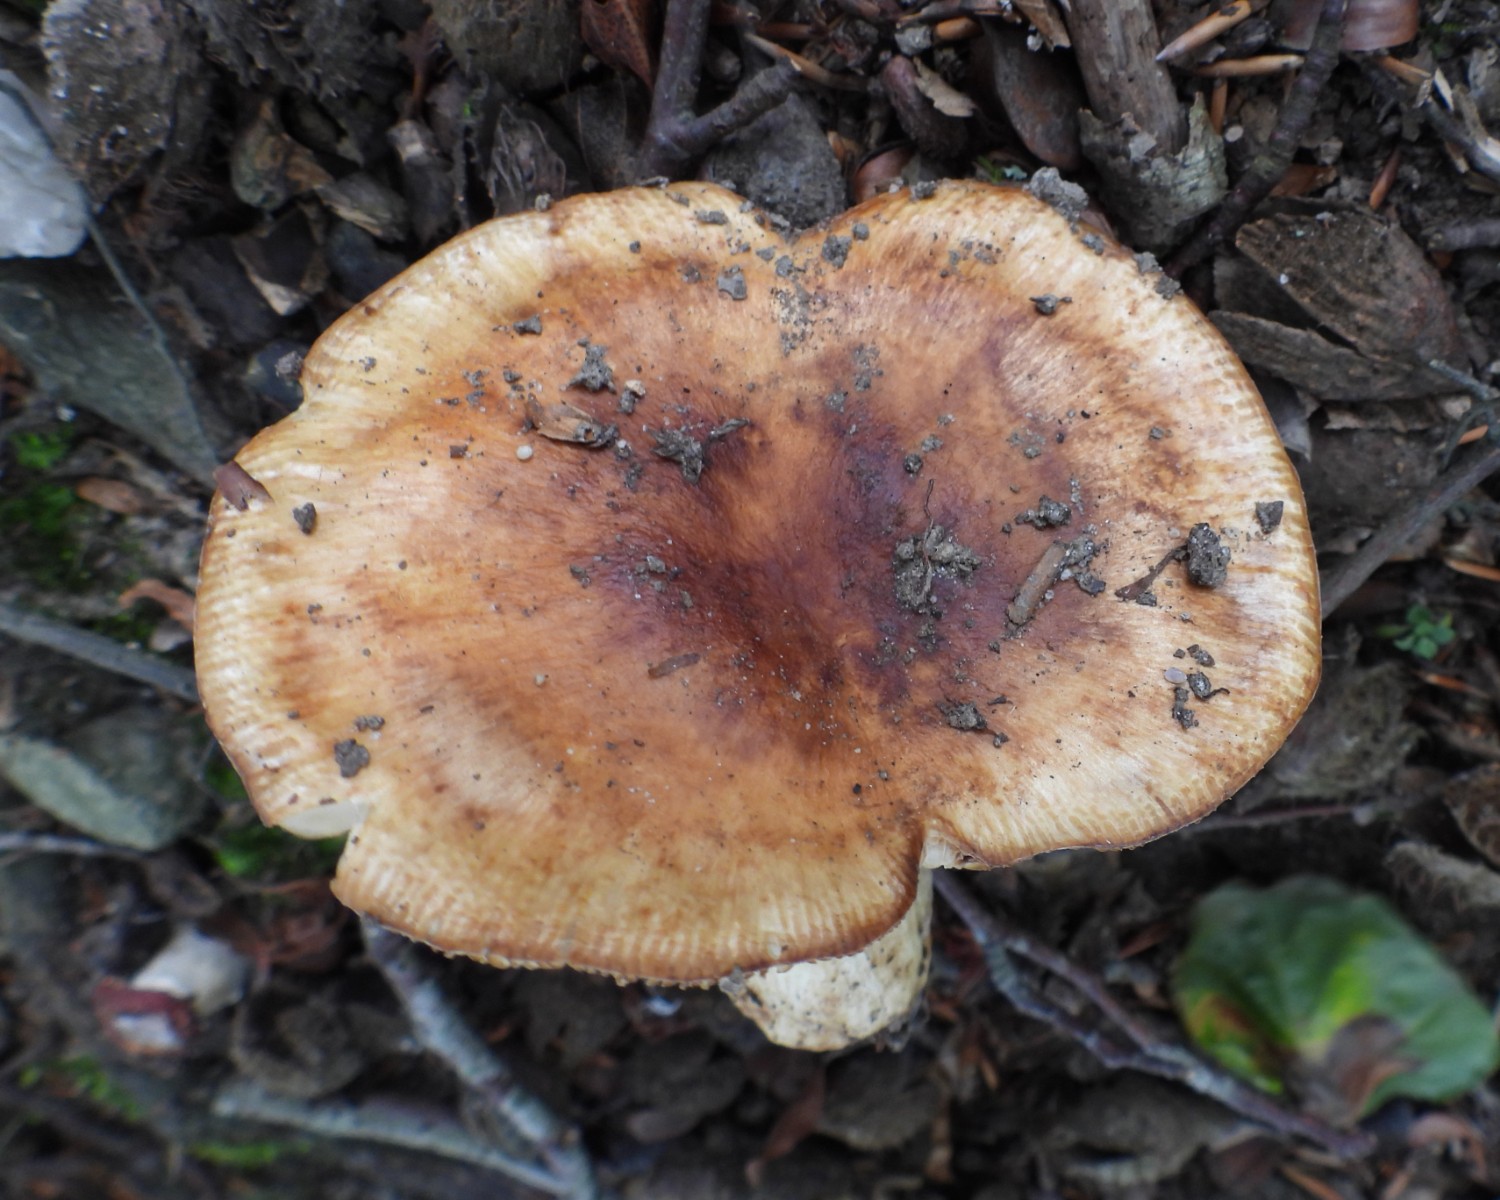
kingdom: Fungi
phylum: Basidiomycota
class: Agaricomycetes
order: Russulales
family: Russulaceae
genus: Russula
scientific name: Russula grata
